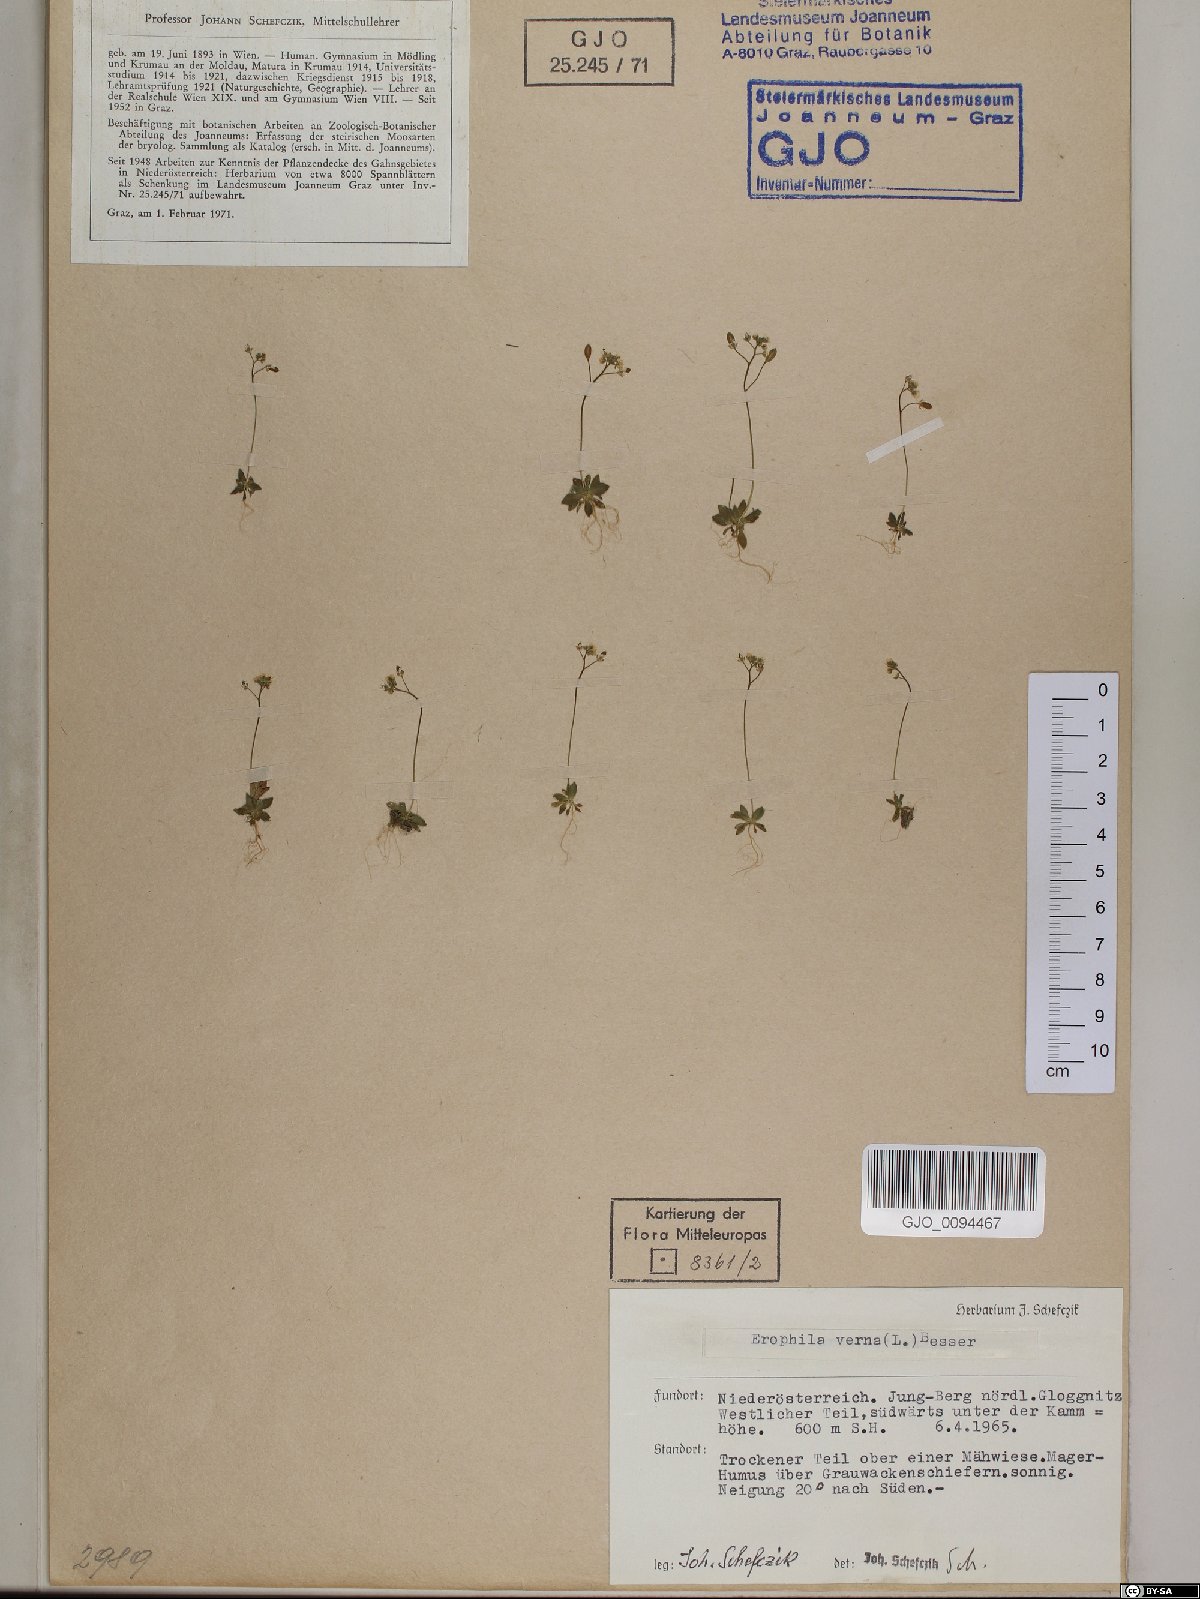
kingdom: Plantae
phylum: Tracheophyta
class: Magnoliopsida
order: Brassicales
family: Brassicaceae
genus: Draba
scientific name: Draba verna
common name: Spring draba
